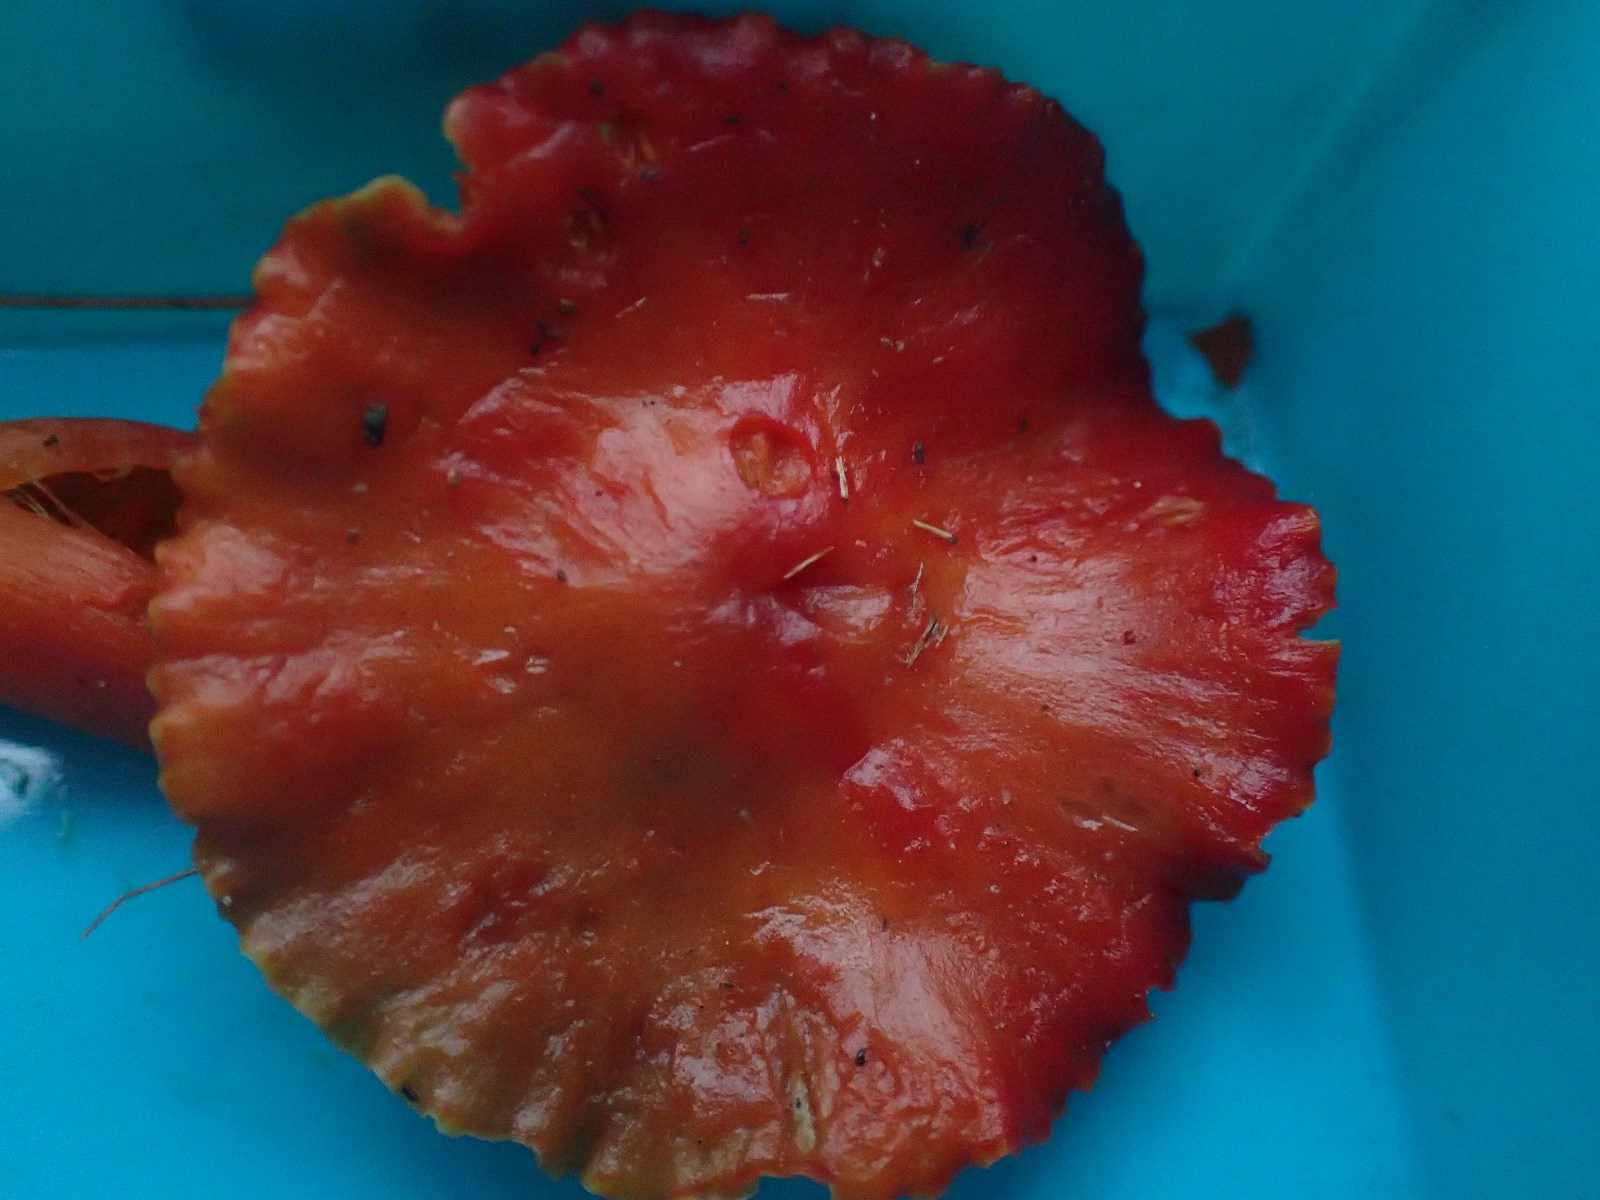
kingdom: Fungi
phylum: Basidiomycota
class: Agaricomycetes
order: Agaricales
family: Hygrophoraceae
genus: Hygrocybe
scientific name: Hygrocybe coccinea
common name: cinnober-vokshat
